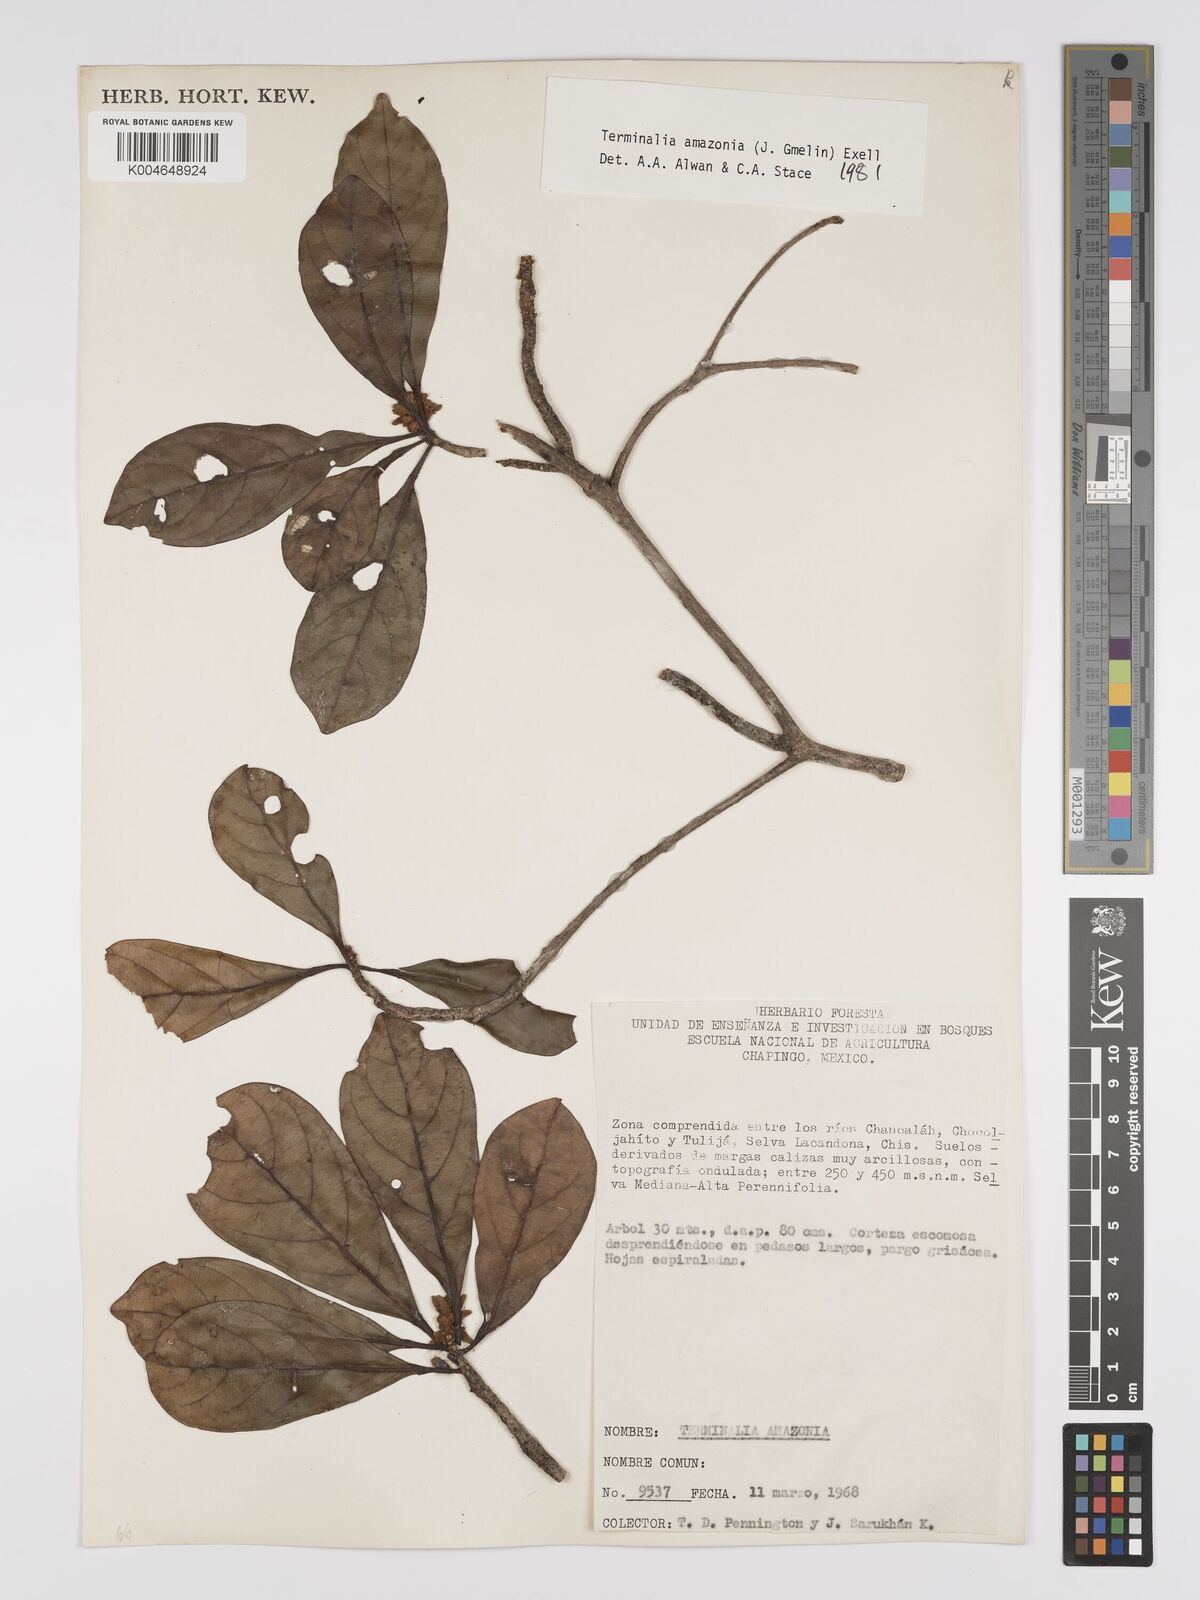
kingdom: Plantae
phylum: Tracheophyta
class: Magnoliopsida
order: Myrtales
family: Combretaceae
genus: Terminalia
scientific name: Terminalia amazonica
